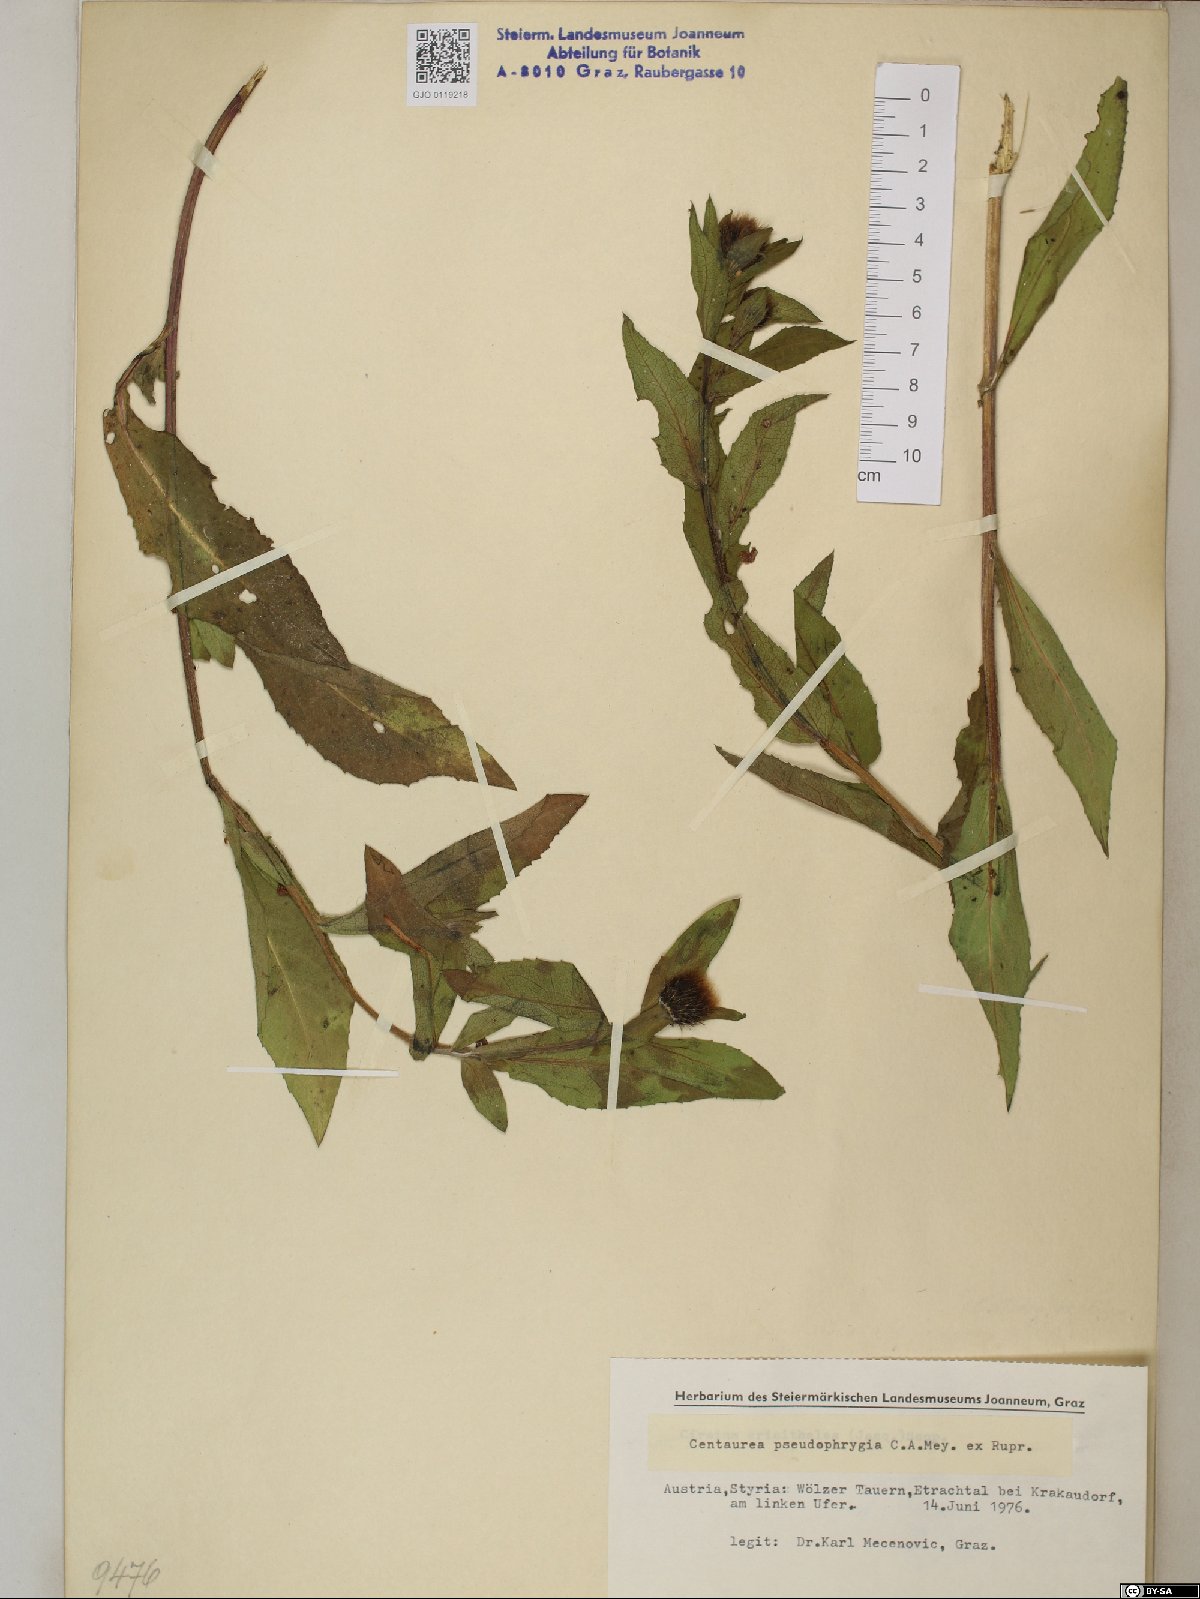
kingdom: Plantae
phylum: Tracheophyta
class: Magnoliopsida
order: Asterales
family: Asteraceae
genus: Centaurea
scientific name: Centaurea pseudophrygia
